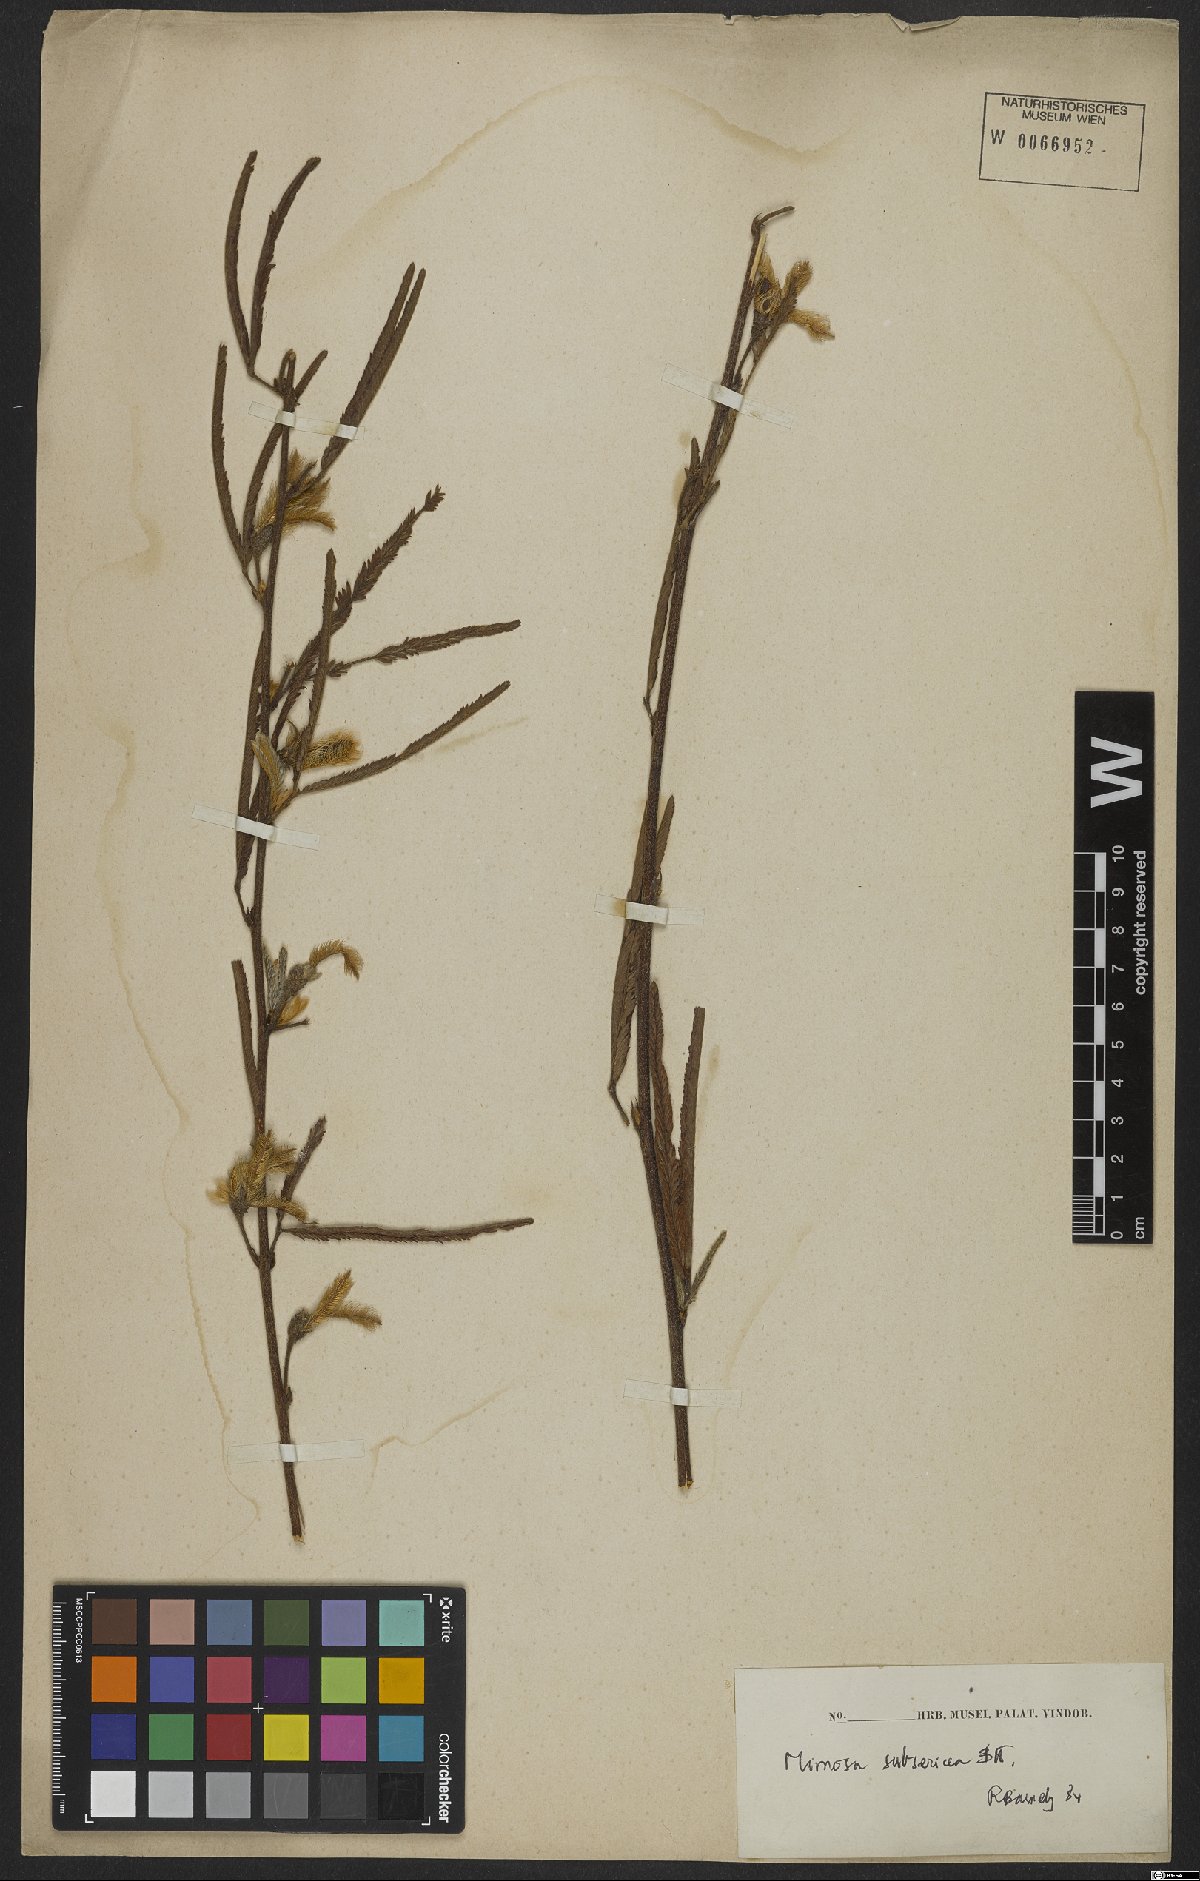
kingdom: Plantae
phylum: Tracheophyta
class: Magnoliopsida
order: Fabales
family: Fabaceae
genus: Mimosa
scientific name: Mimosa xanthocentra
